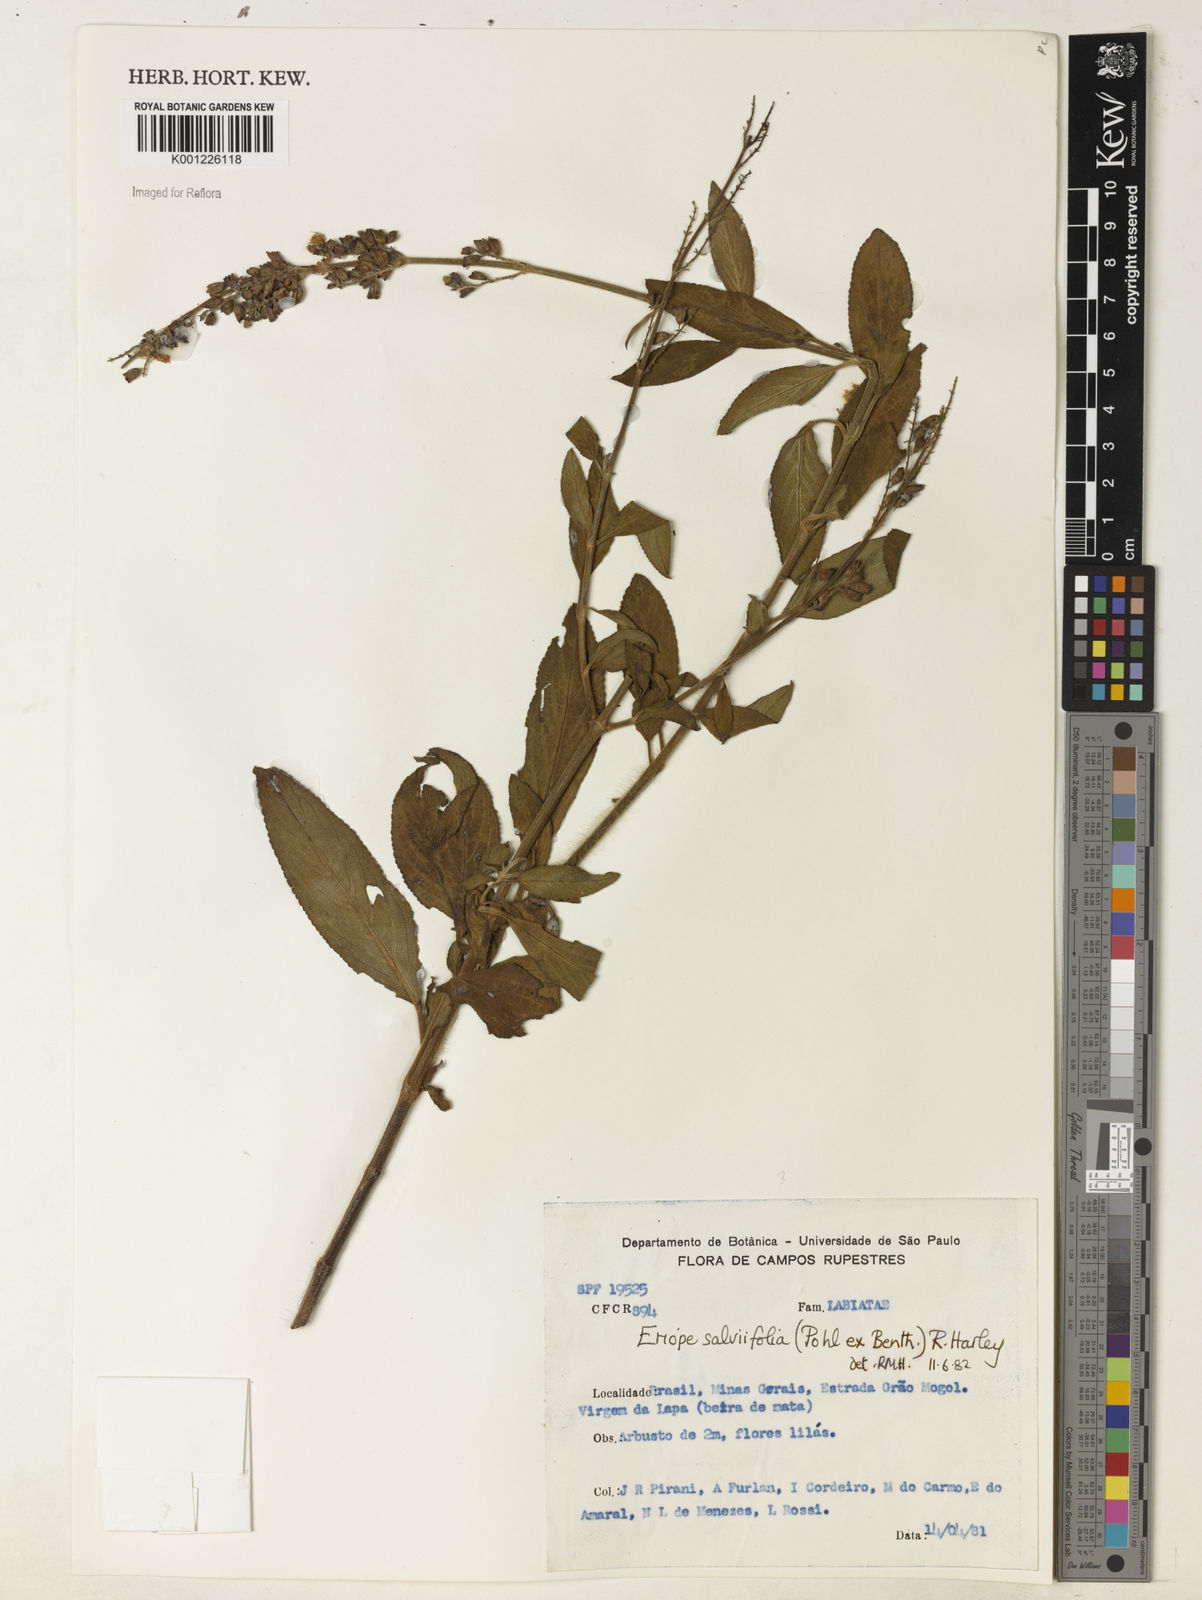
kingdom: Plantae
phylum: Tracheophyta
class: Magnoliopsida
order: Lamiales
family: Lamiaceae
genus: Eriope
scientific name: Eriope salviifolia
